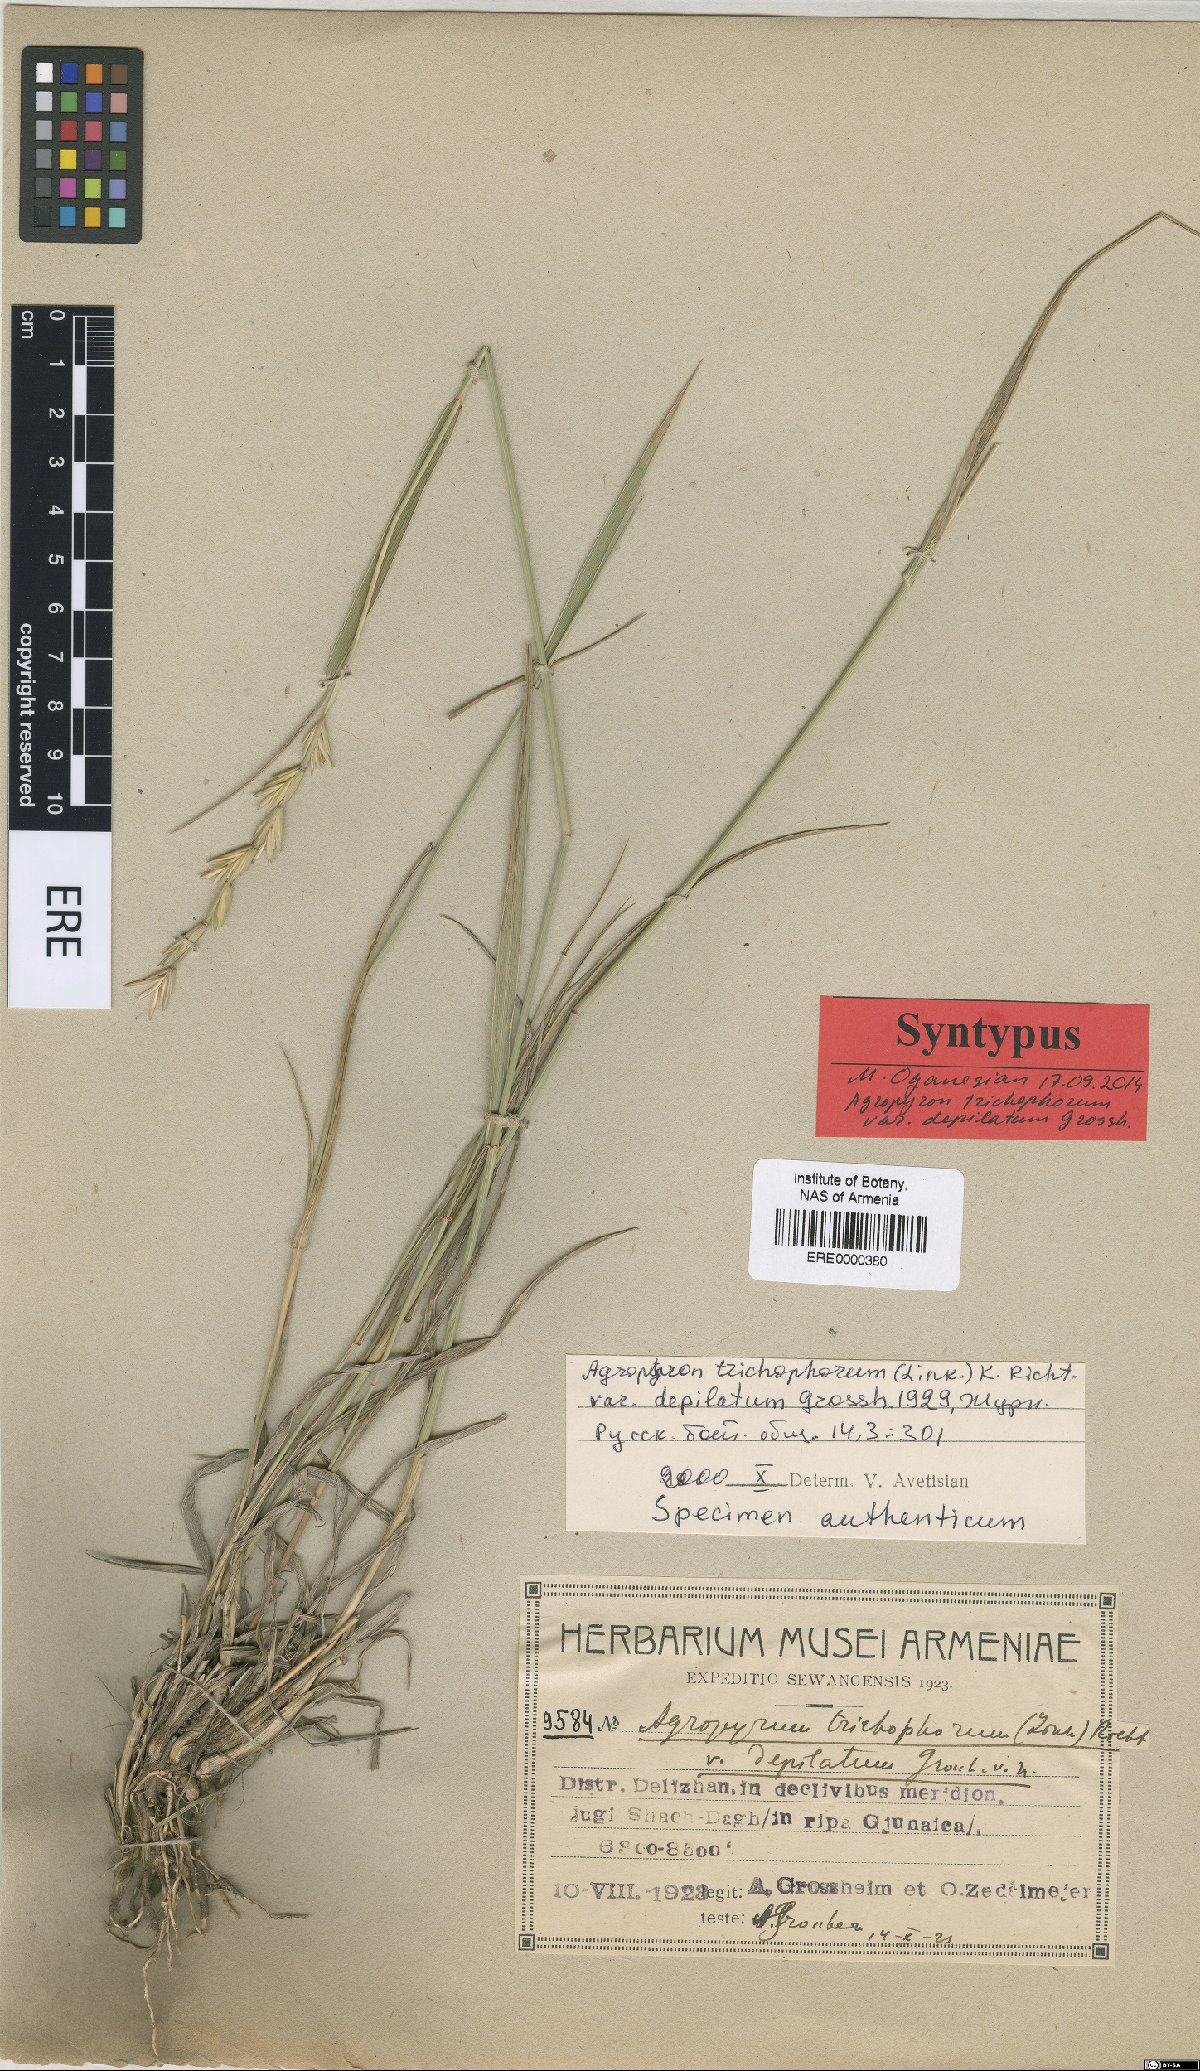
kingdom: Plantae
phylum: Tracheophyta
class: Liliopsida
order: Poales
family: Poaceae
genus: Thinopyrum
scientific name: Thinopyrum intermedium
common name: Intermediate wheatgrass
